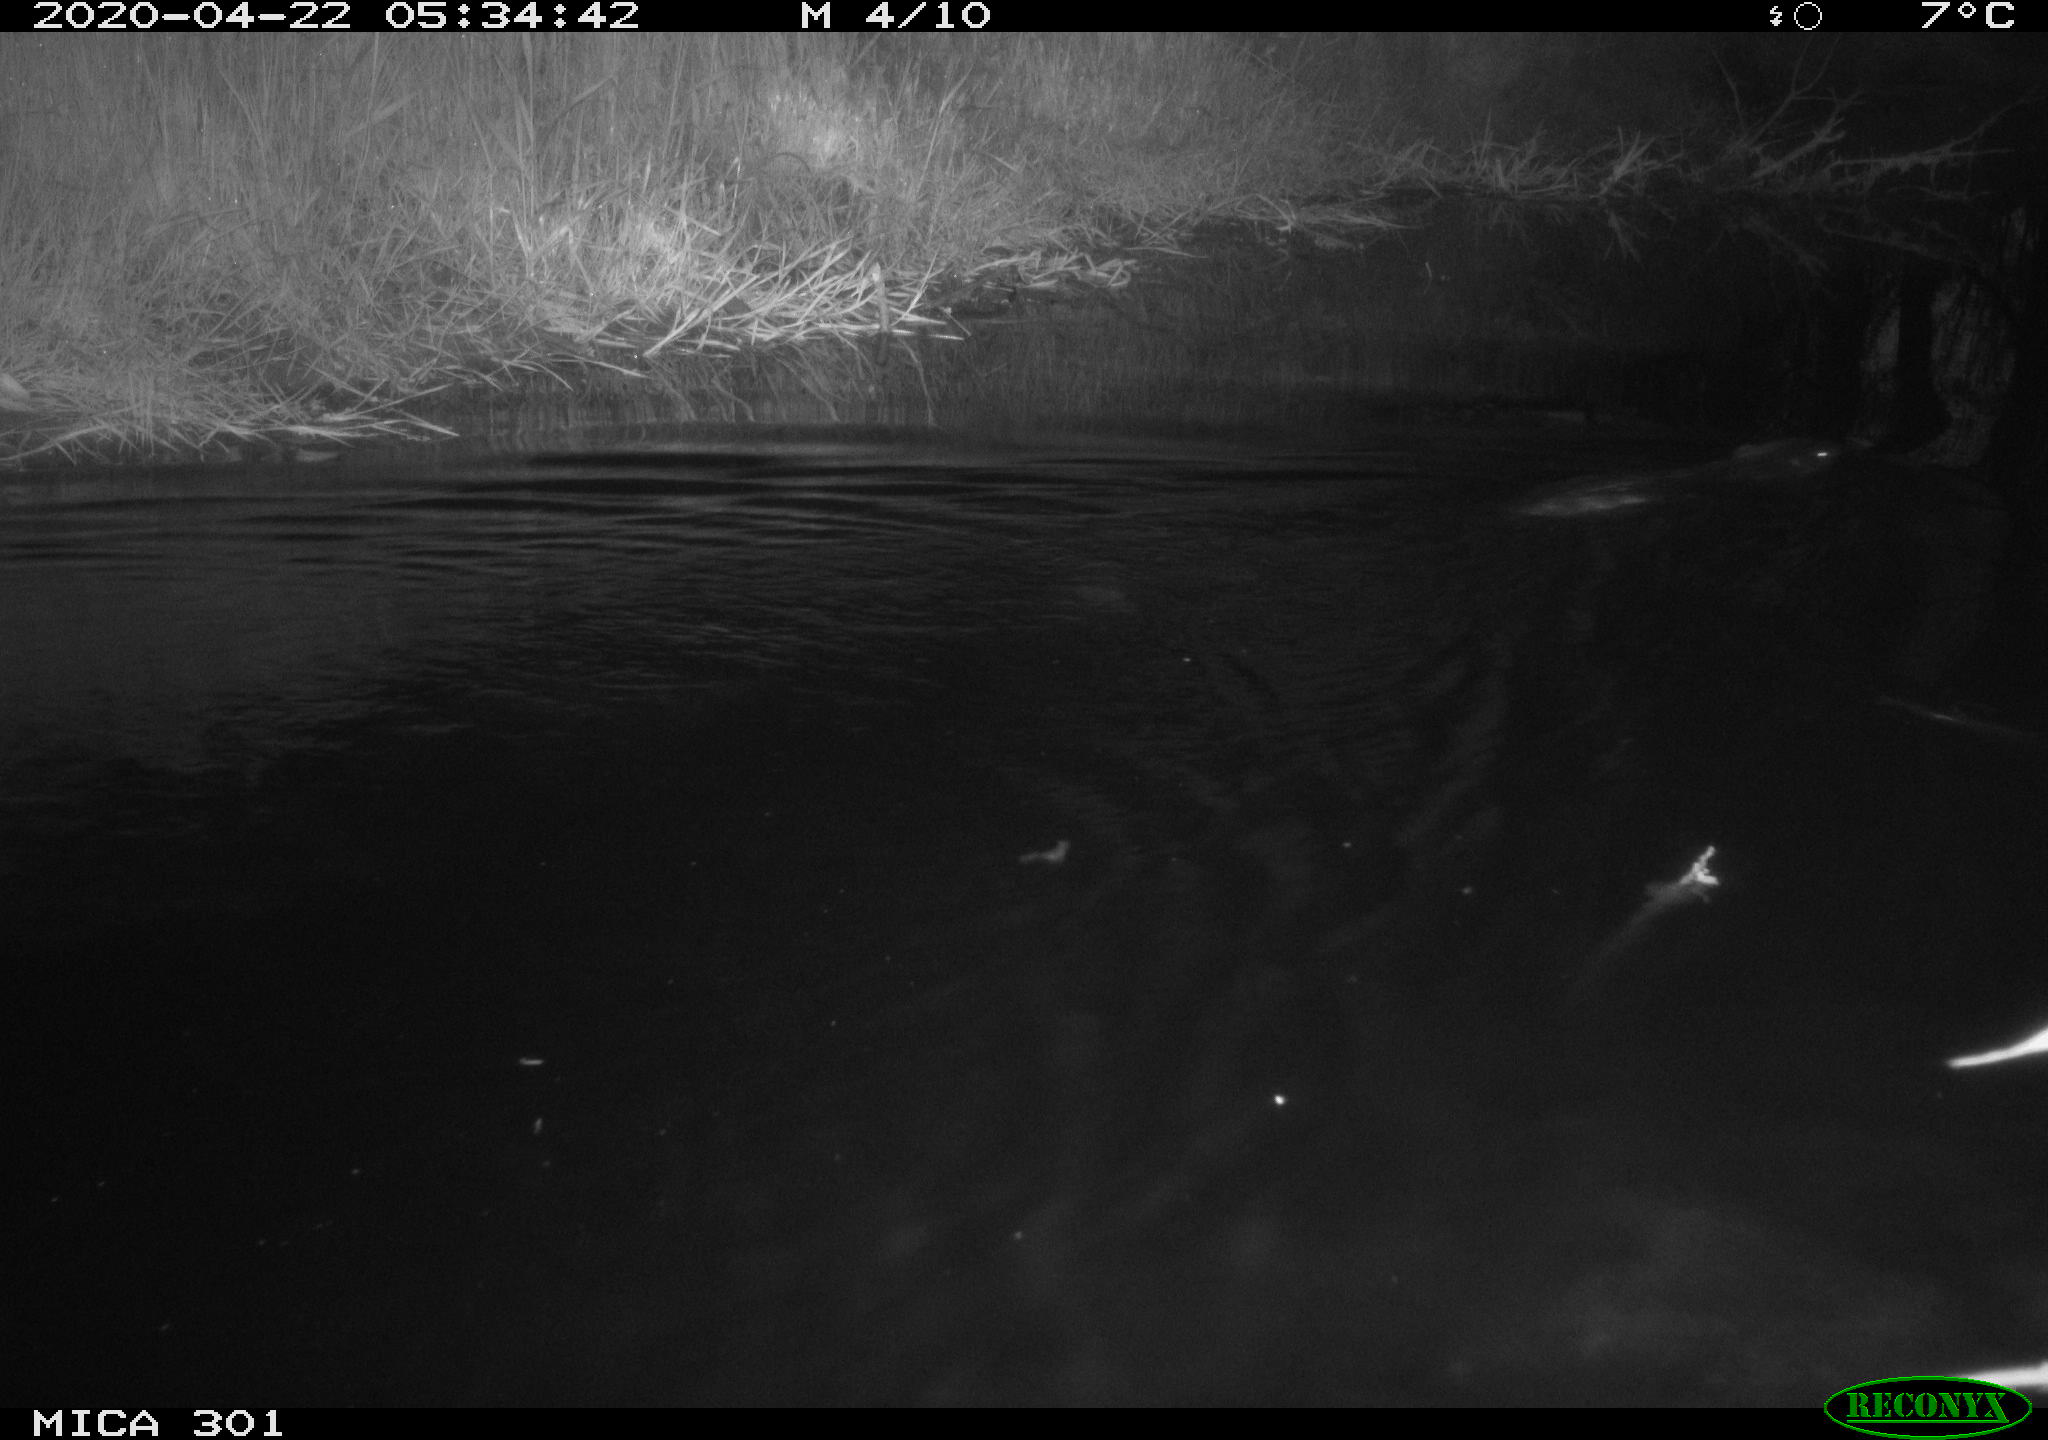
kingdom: Animalia
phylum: Chordata
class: Mammalia
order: Rodentia
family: Castoridae
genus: Castor
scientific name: Castor fiber
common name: Eurasian beaver
